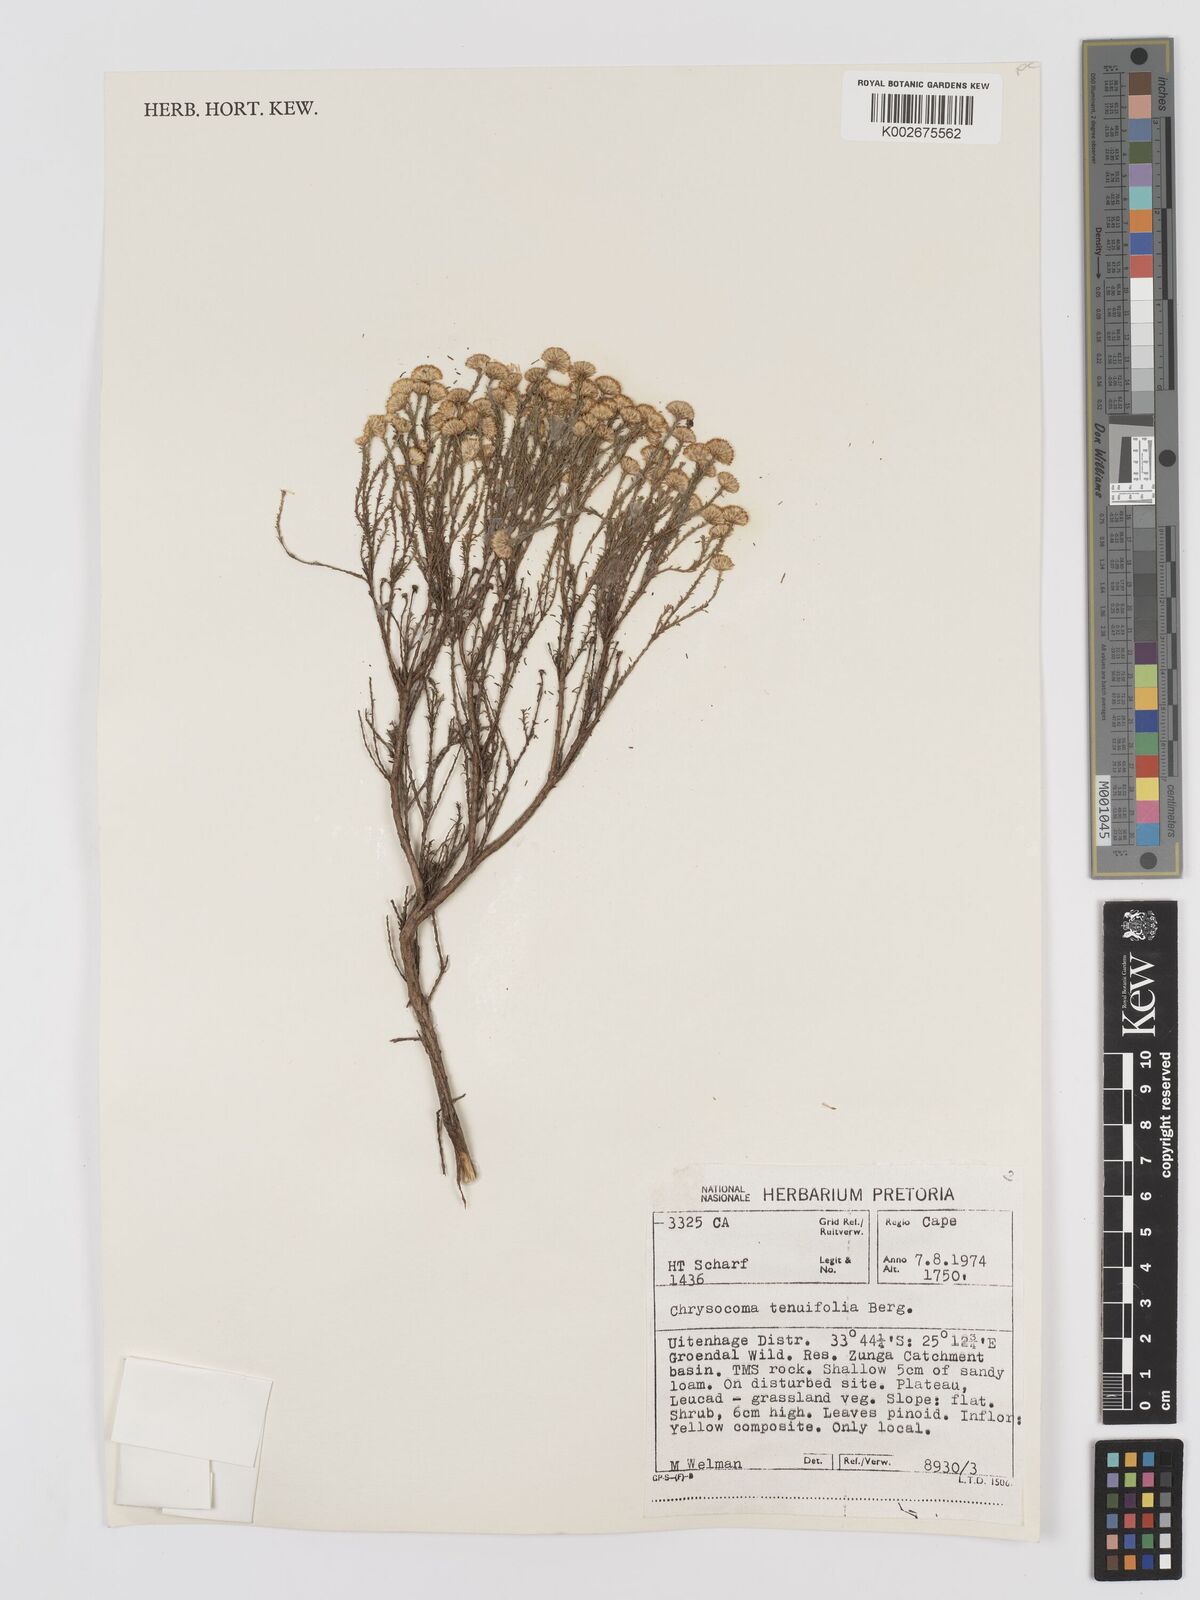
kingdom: Plantae
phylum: Tracheophyta
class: Magnoliopsida
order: Asterales
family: Asteraceae
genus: Chrysocoma
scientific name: Chrysocoma ciliata
